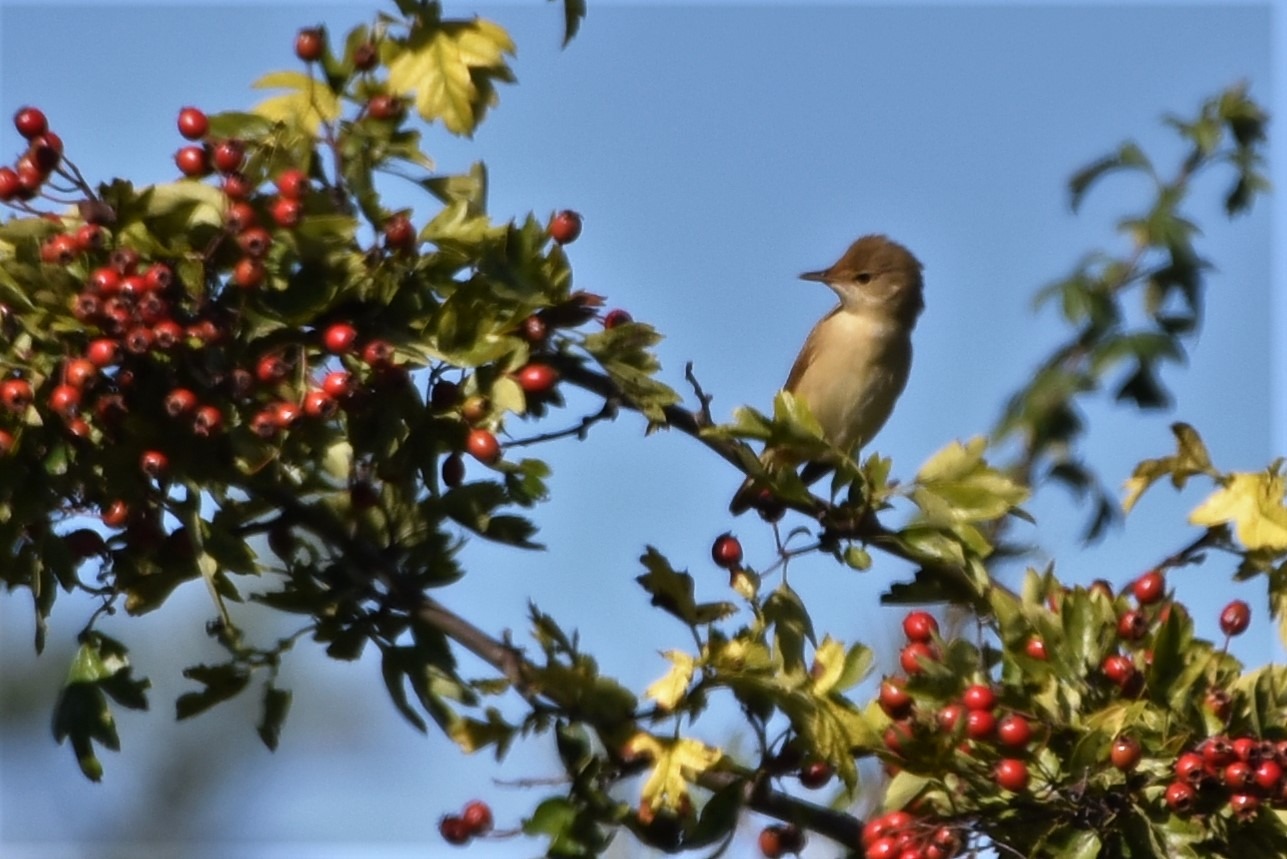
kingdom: Animalia
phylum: Chordata
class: Aves
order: Passeriformes
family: Acrocephalidae
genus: Acrocephalus
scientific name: Acrocephalus palustris
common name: Kærsanger
